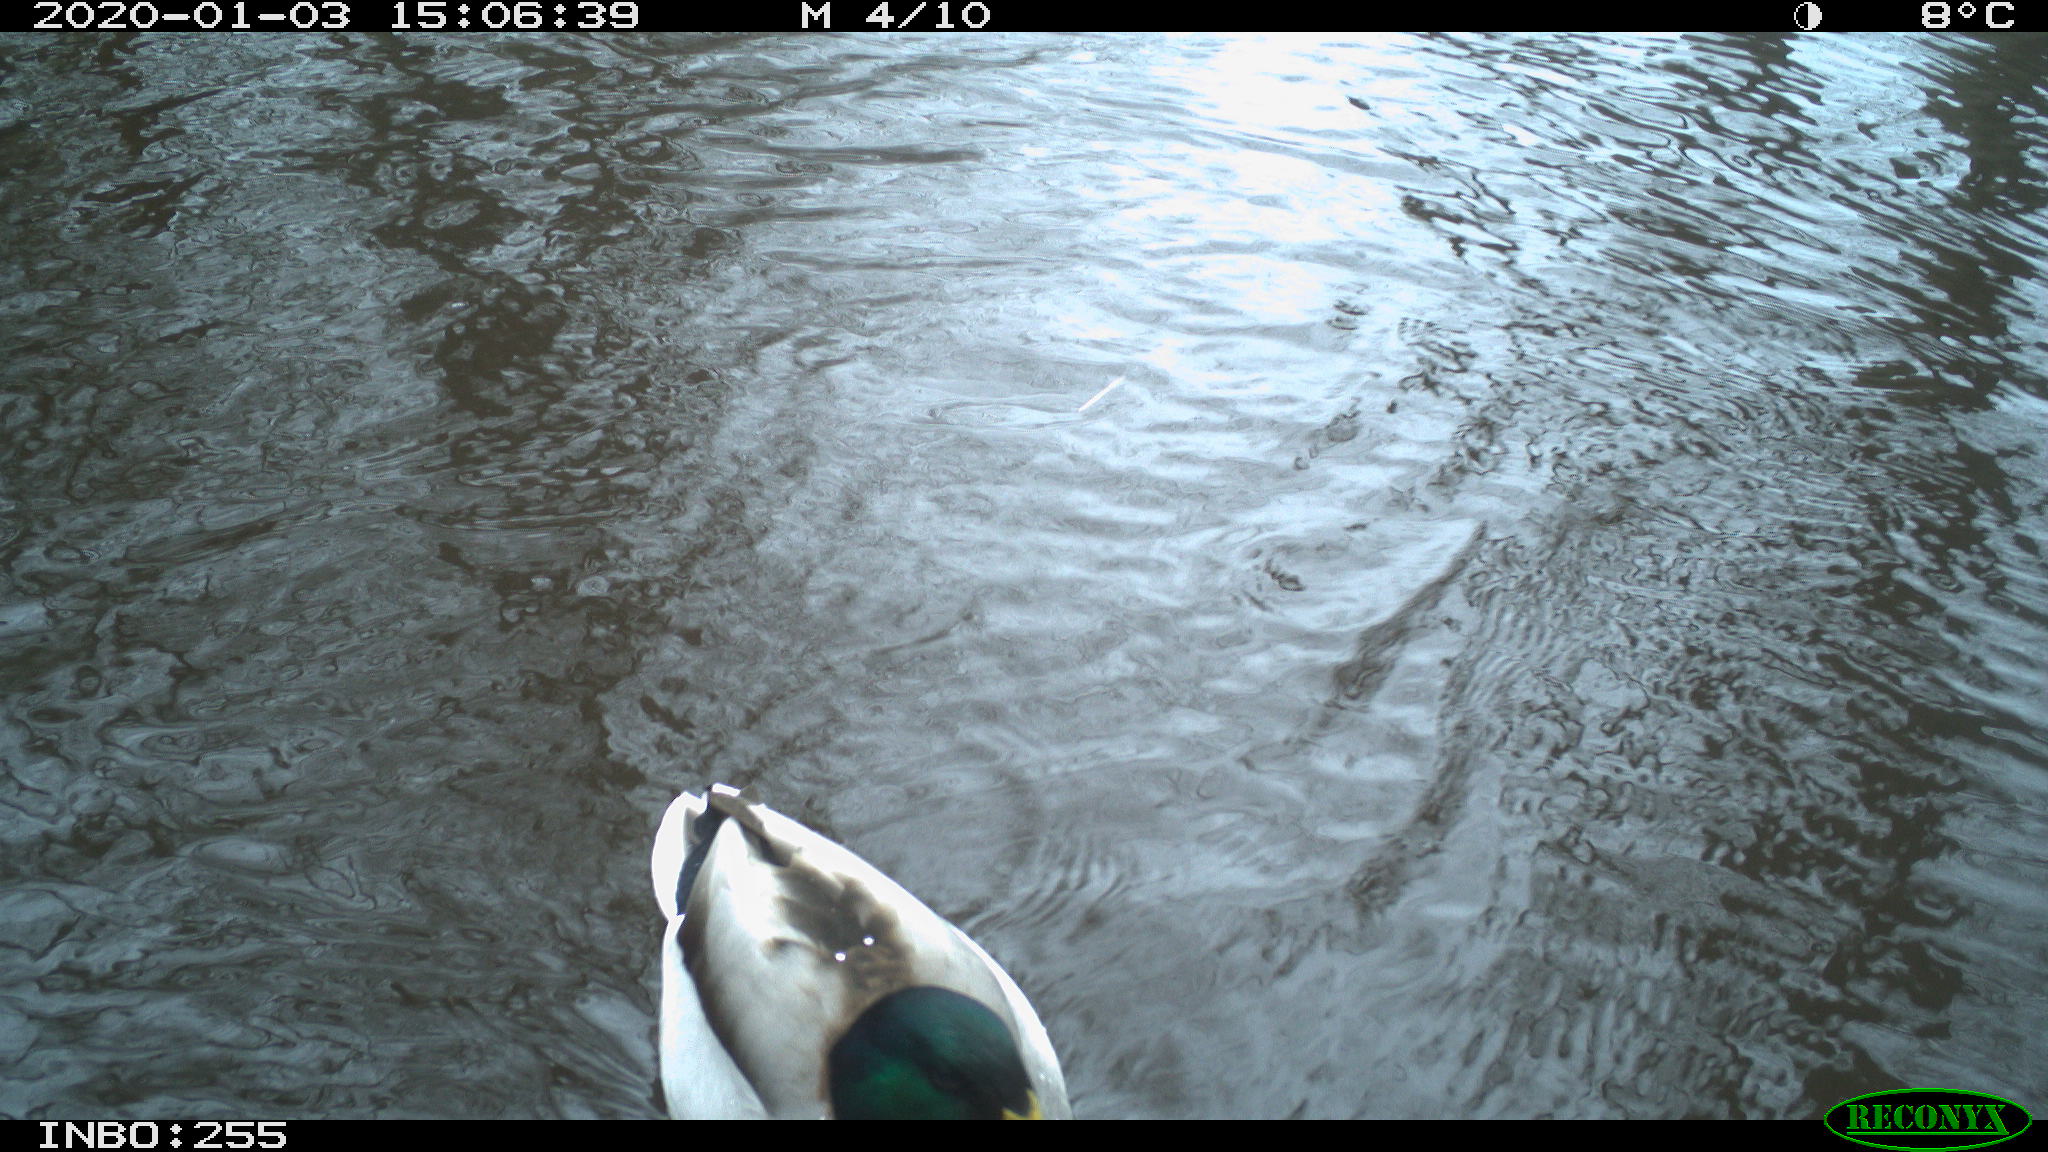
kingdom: Animalia
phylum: Chordata
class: Aves
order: Anseriformes
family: Anatidae
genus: Anas
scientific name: Anas platyrhynchos
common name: Mallard
